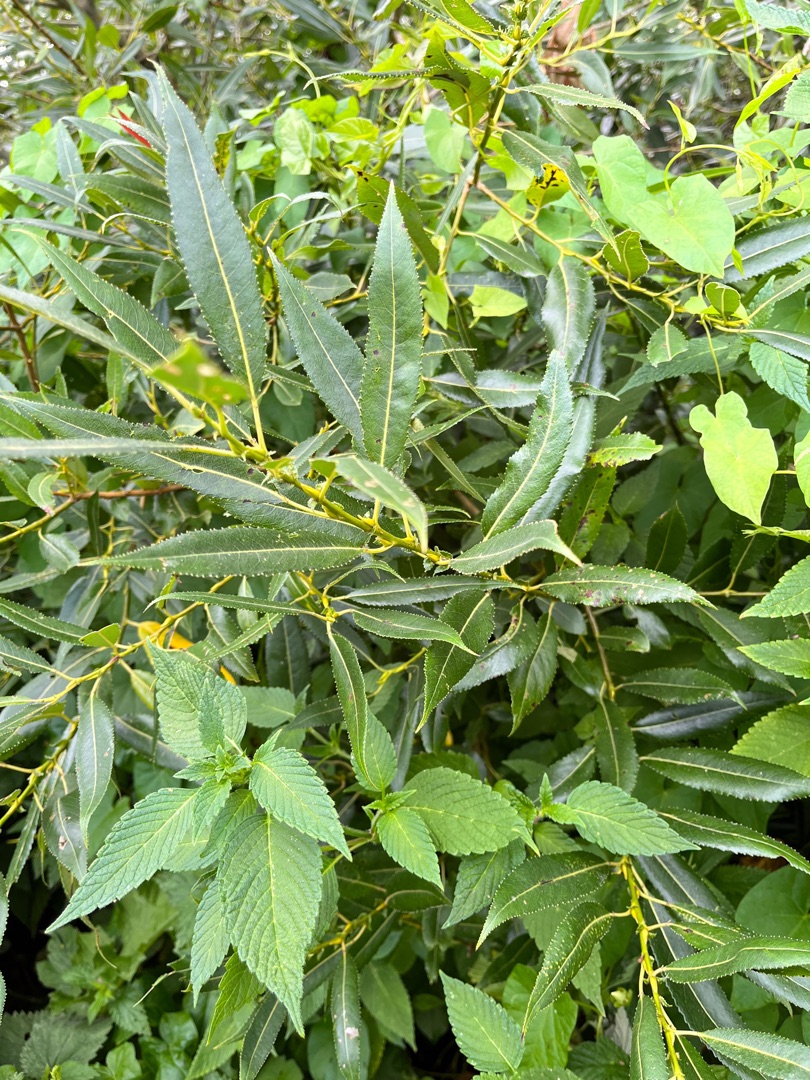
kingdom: Plantae
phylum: Tracheophyta
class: Magnoliopsida
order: Malpighiales
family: Salicaceae
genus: Salix
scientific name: Salix fragilis
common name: Grøn pil
